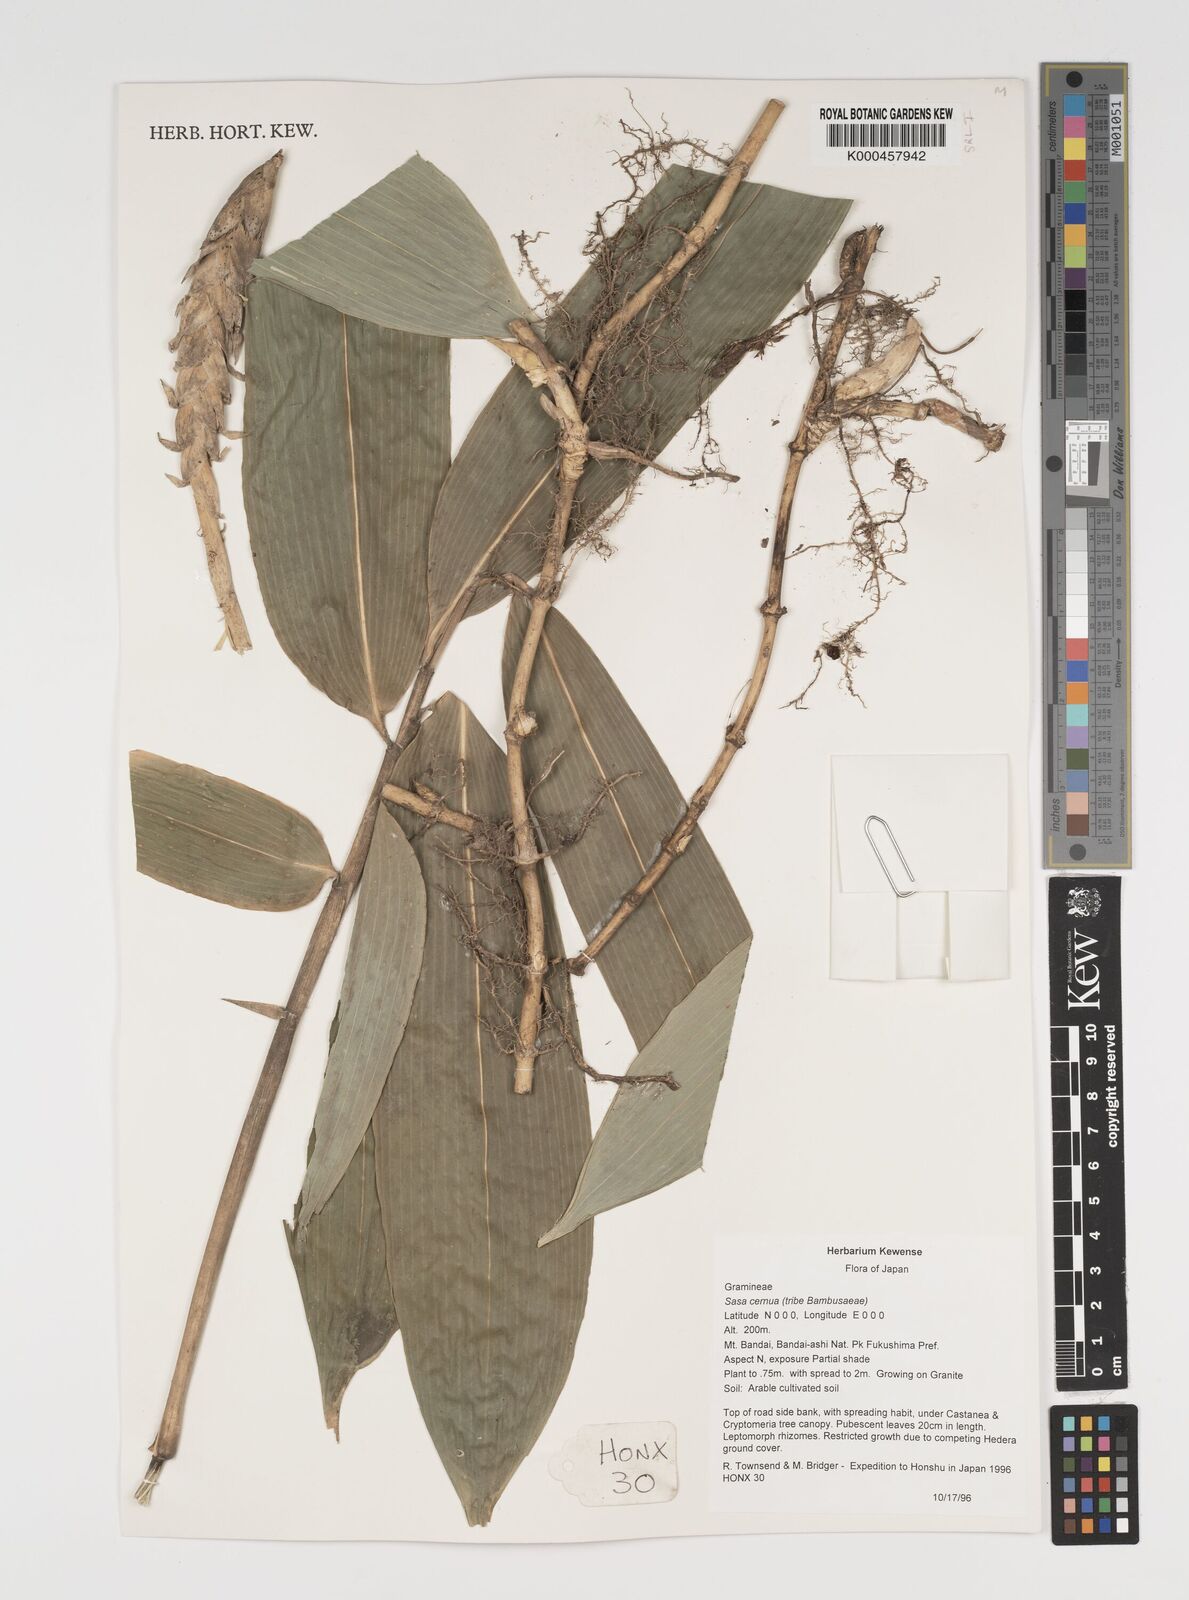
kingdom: Plantae
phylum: Tracheophyta
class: Liliopsida
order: Poales
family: Poaceae
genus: Sasa
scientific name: Sasa cernua
